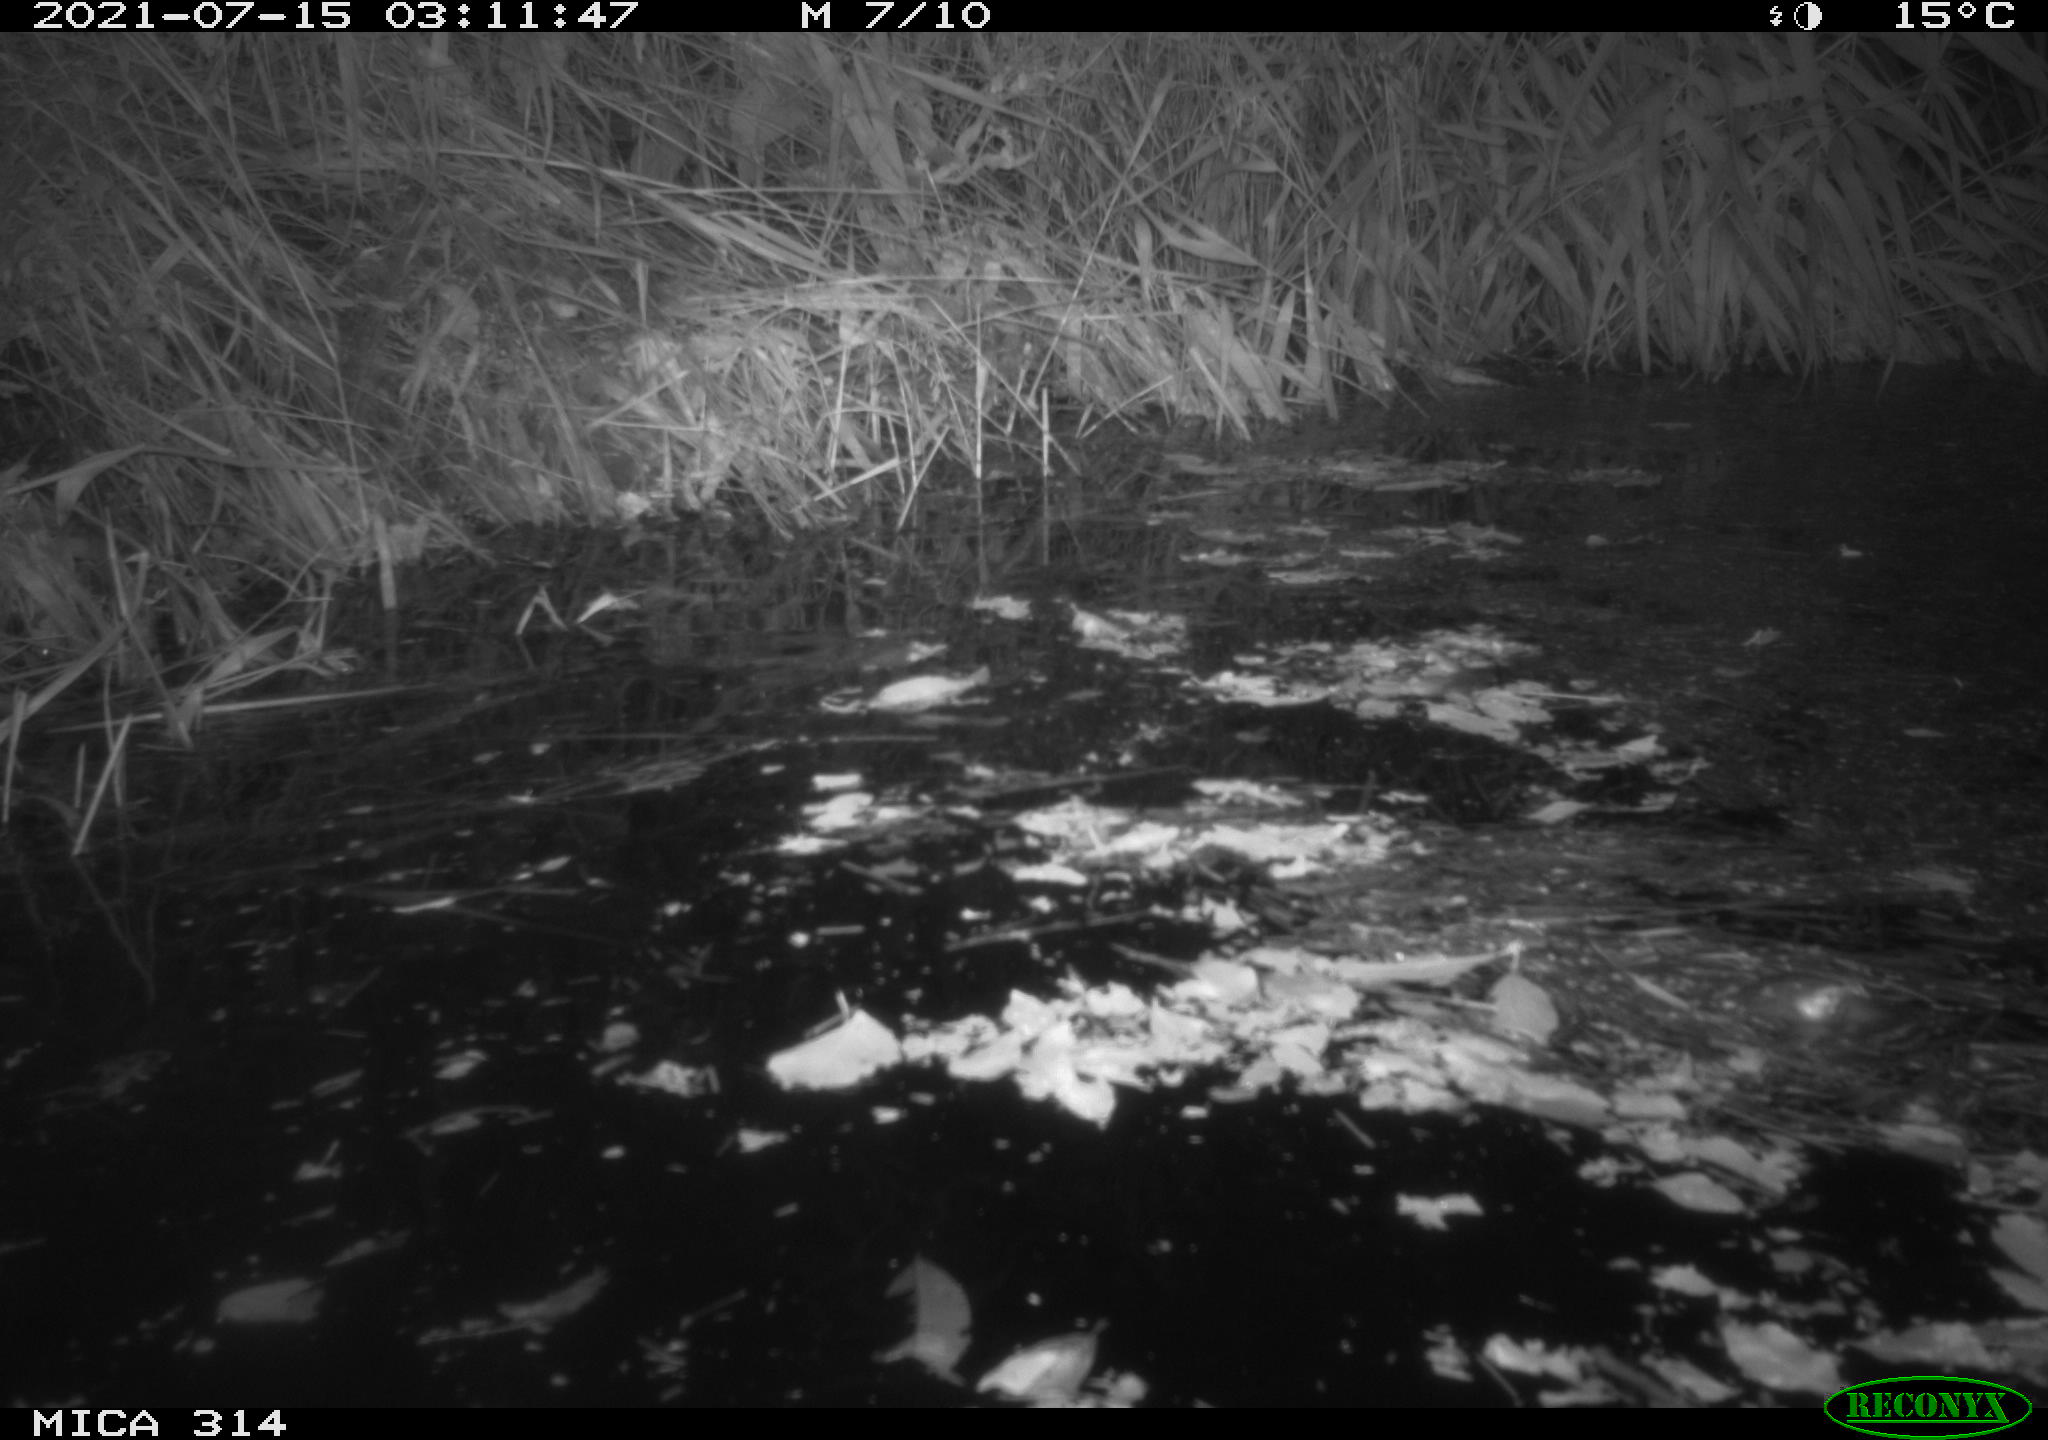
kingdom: Animalia
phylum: Chordata
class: Mammalia
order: Rodentia
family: Muridae
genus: Rattus
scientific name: Rattus norvegicus
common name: Brown rat
